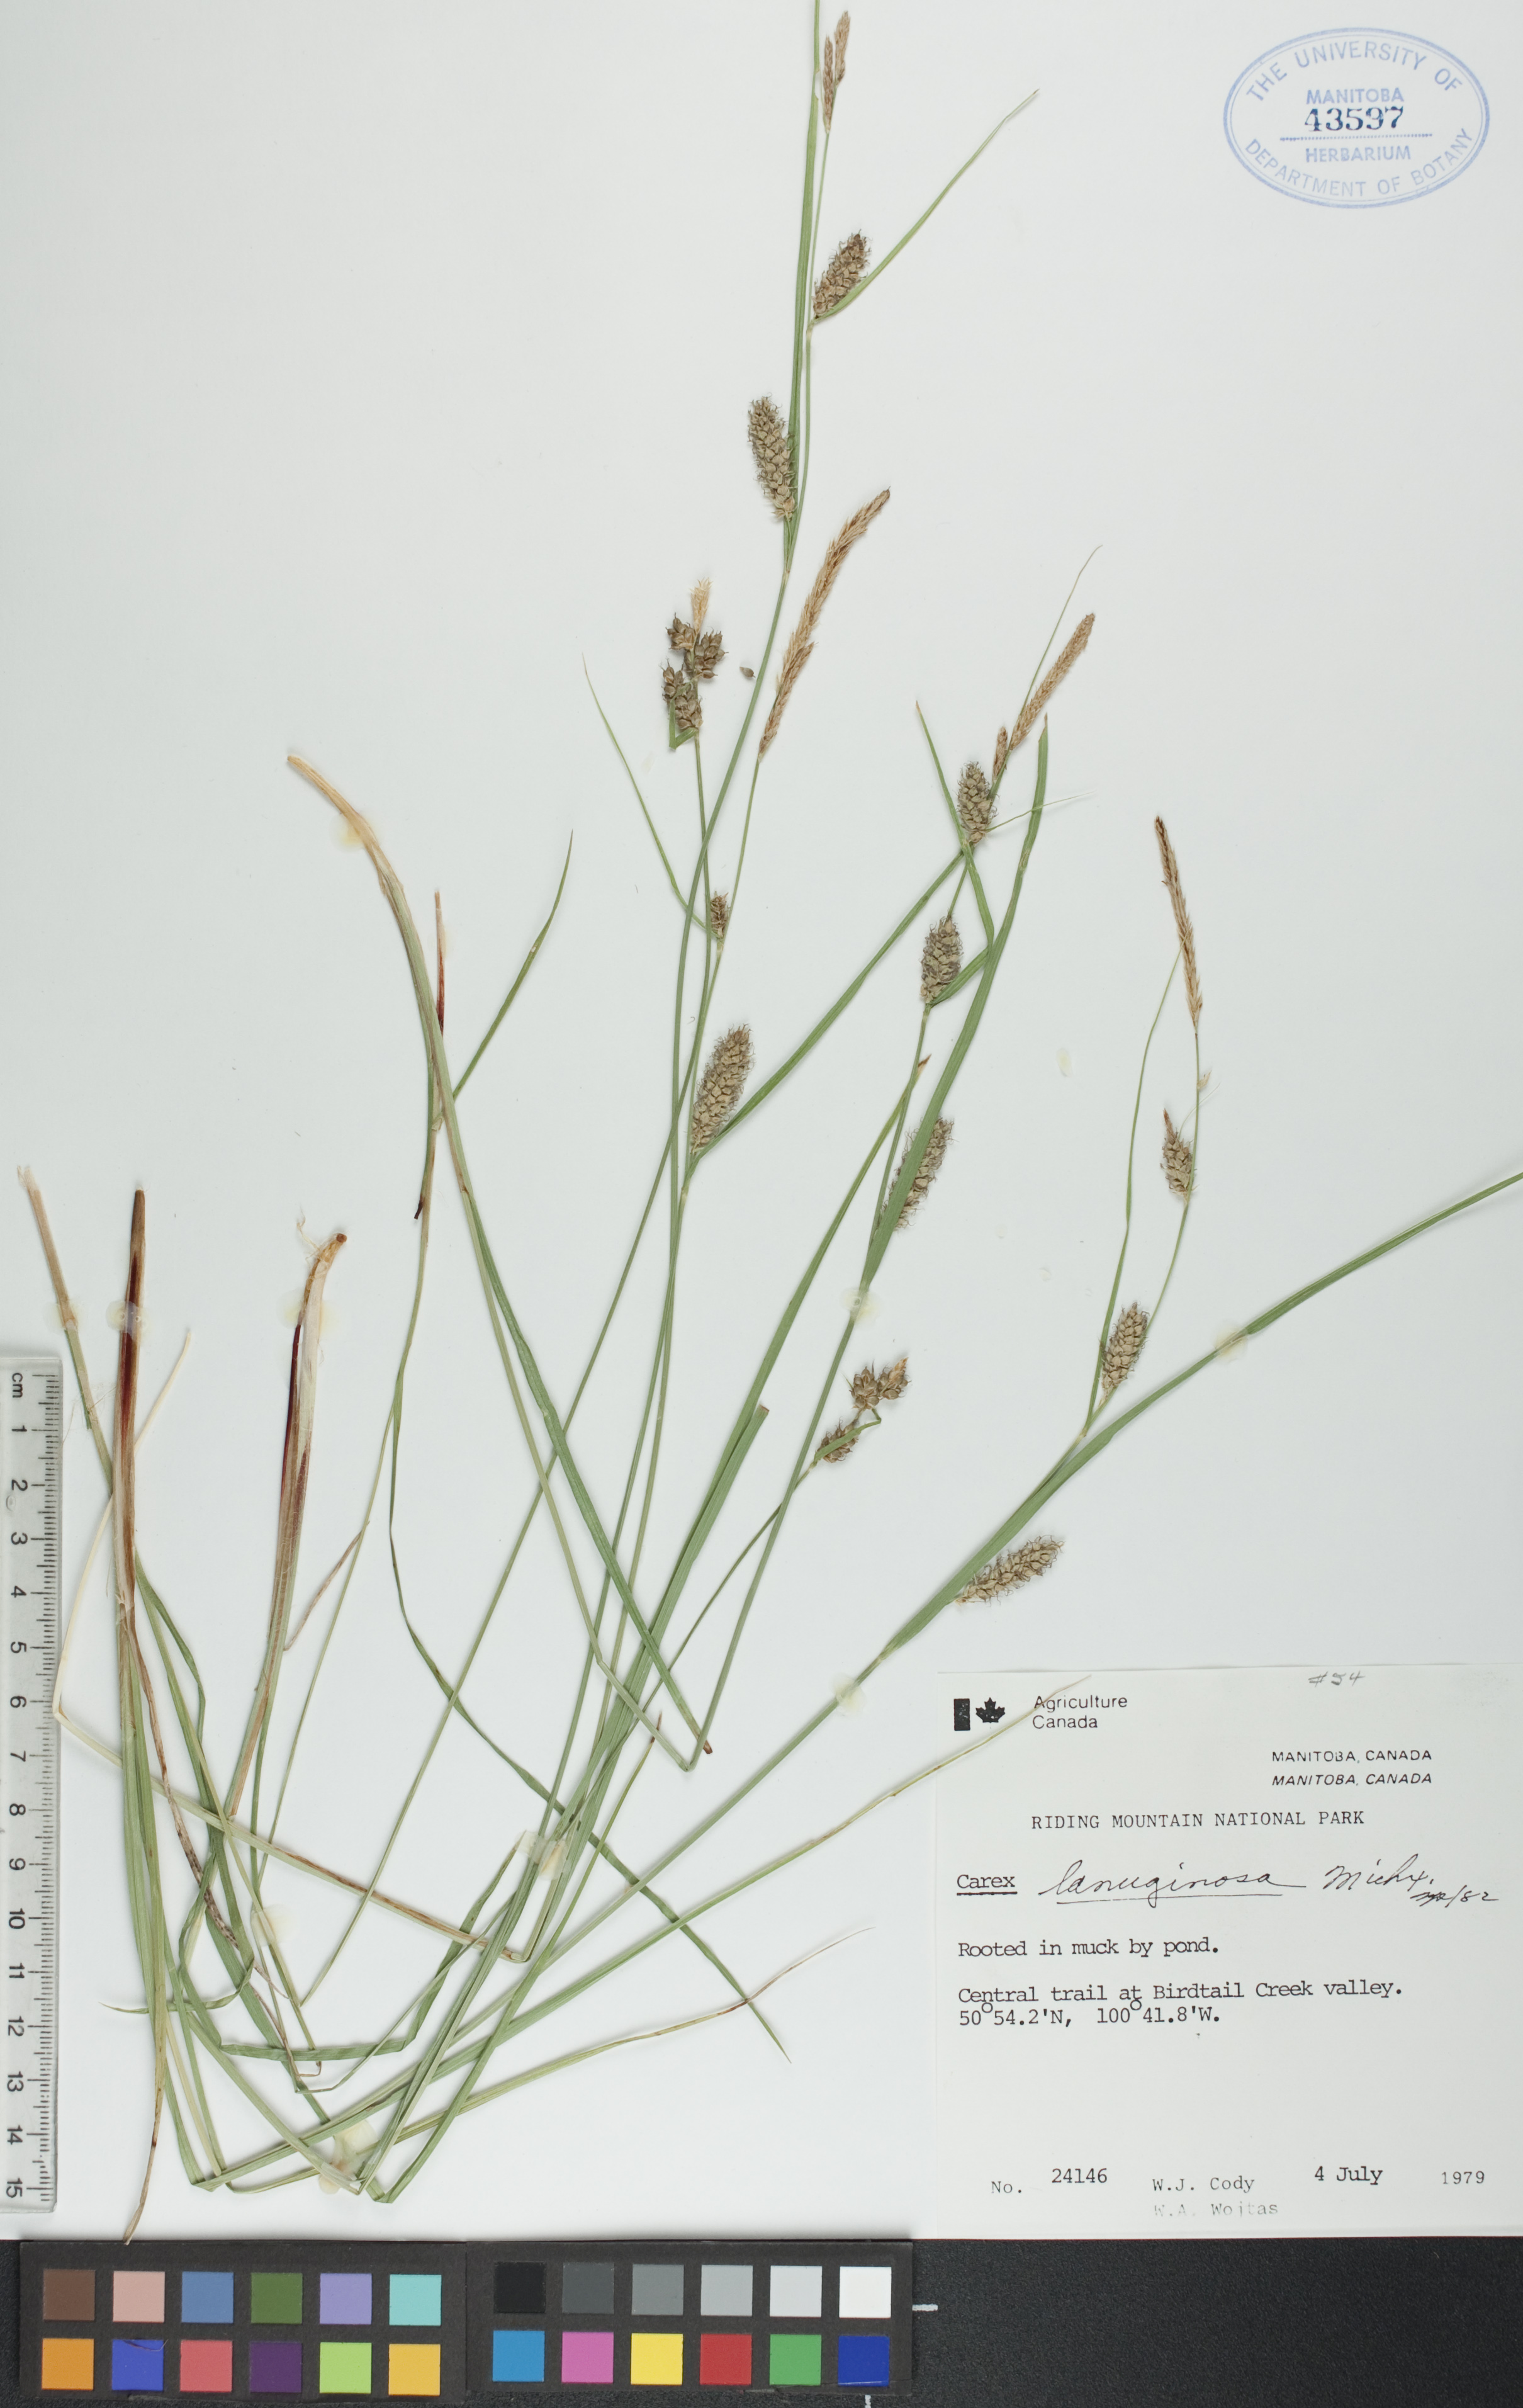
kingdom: Plantae
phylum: Tracheophyta
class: Liliopsida
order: Poales
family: Cyperaceae
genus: Carex
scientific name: Carex lasiocarpa
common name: Slender sedge
